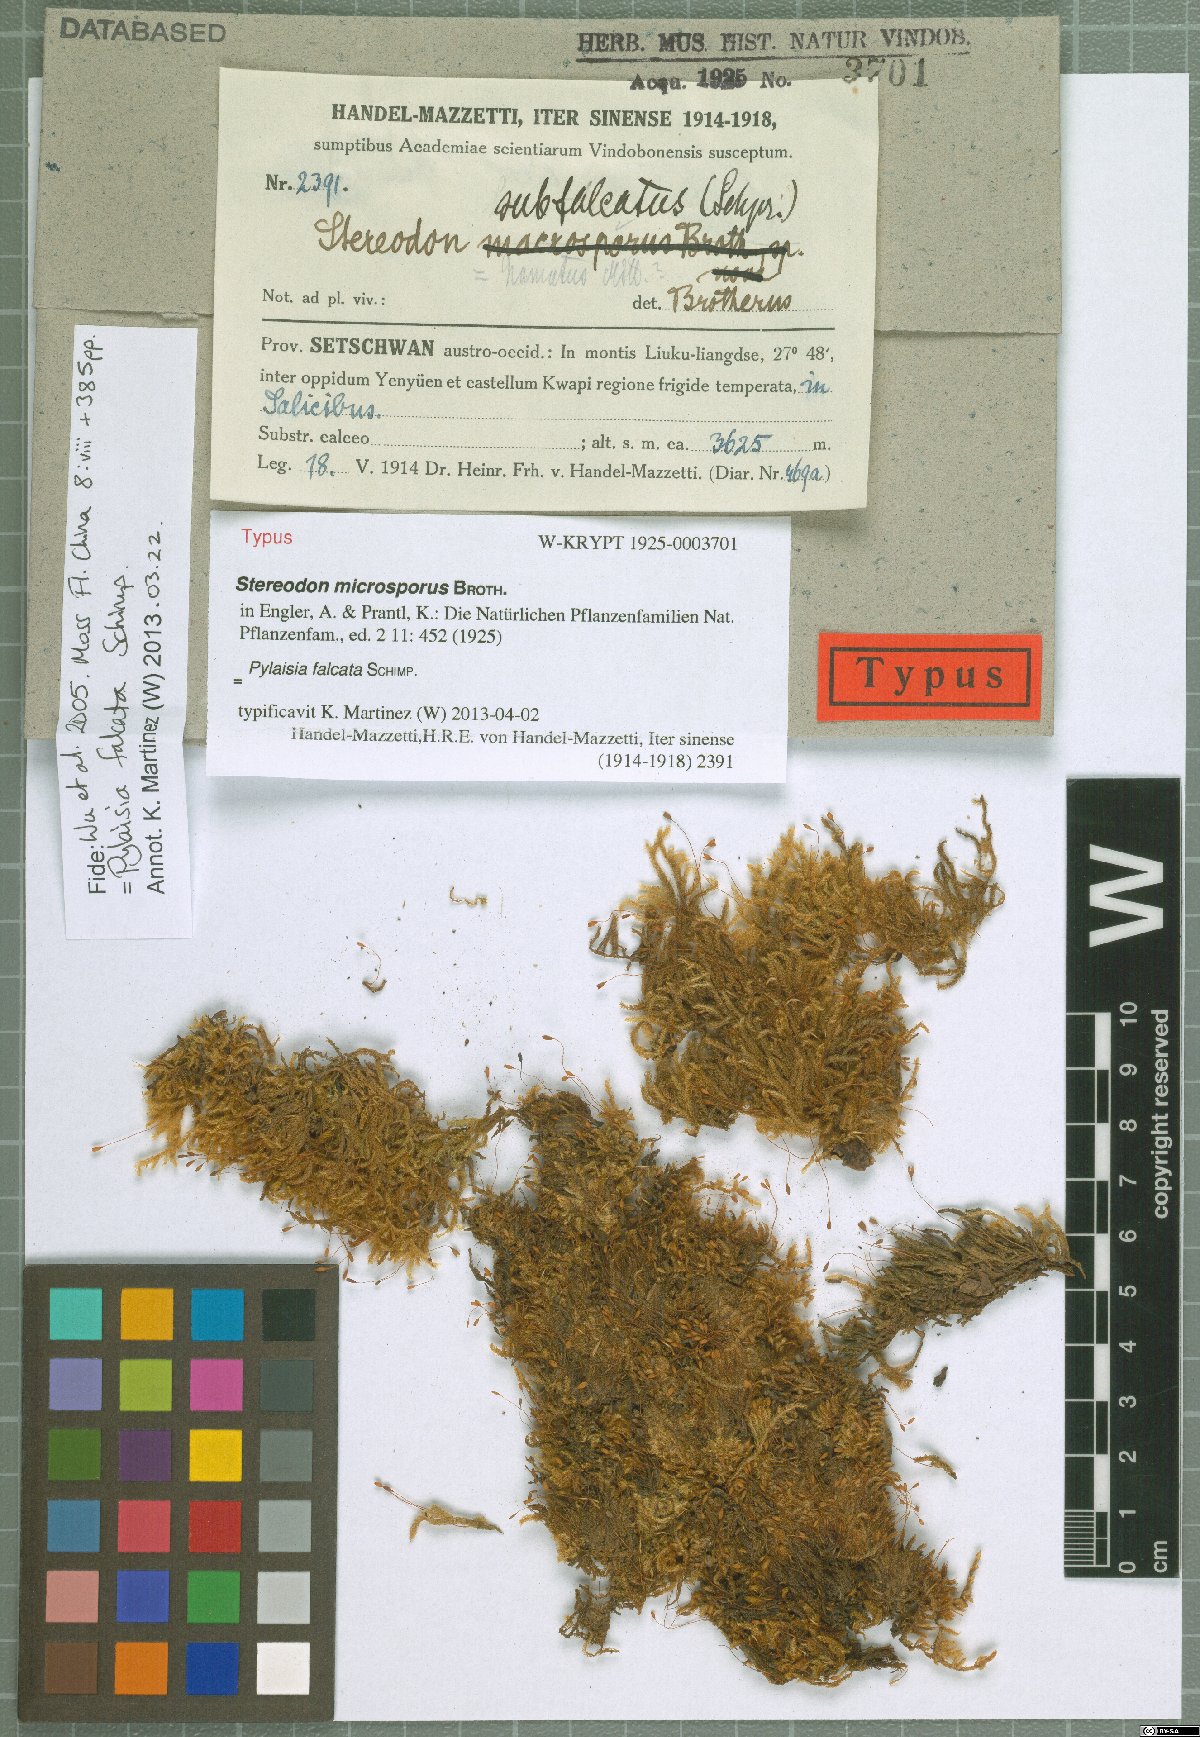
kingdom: Plantae
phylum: Bryophyta
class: Bryopsida
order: Hypnales
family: Pylaisiaceae
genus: Pylaisia
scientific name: Pylaisia falcata
